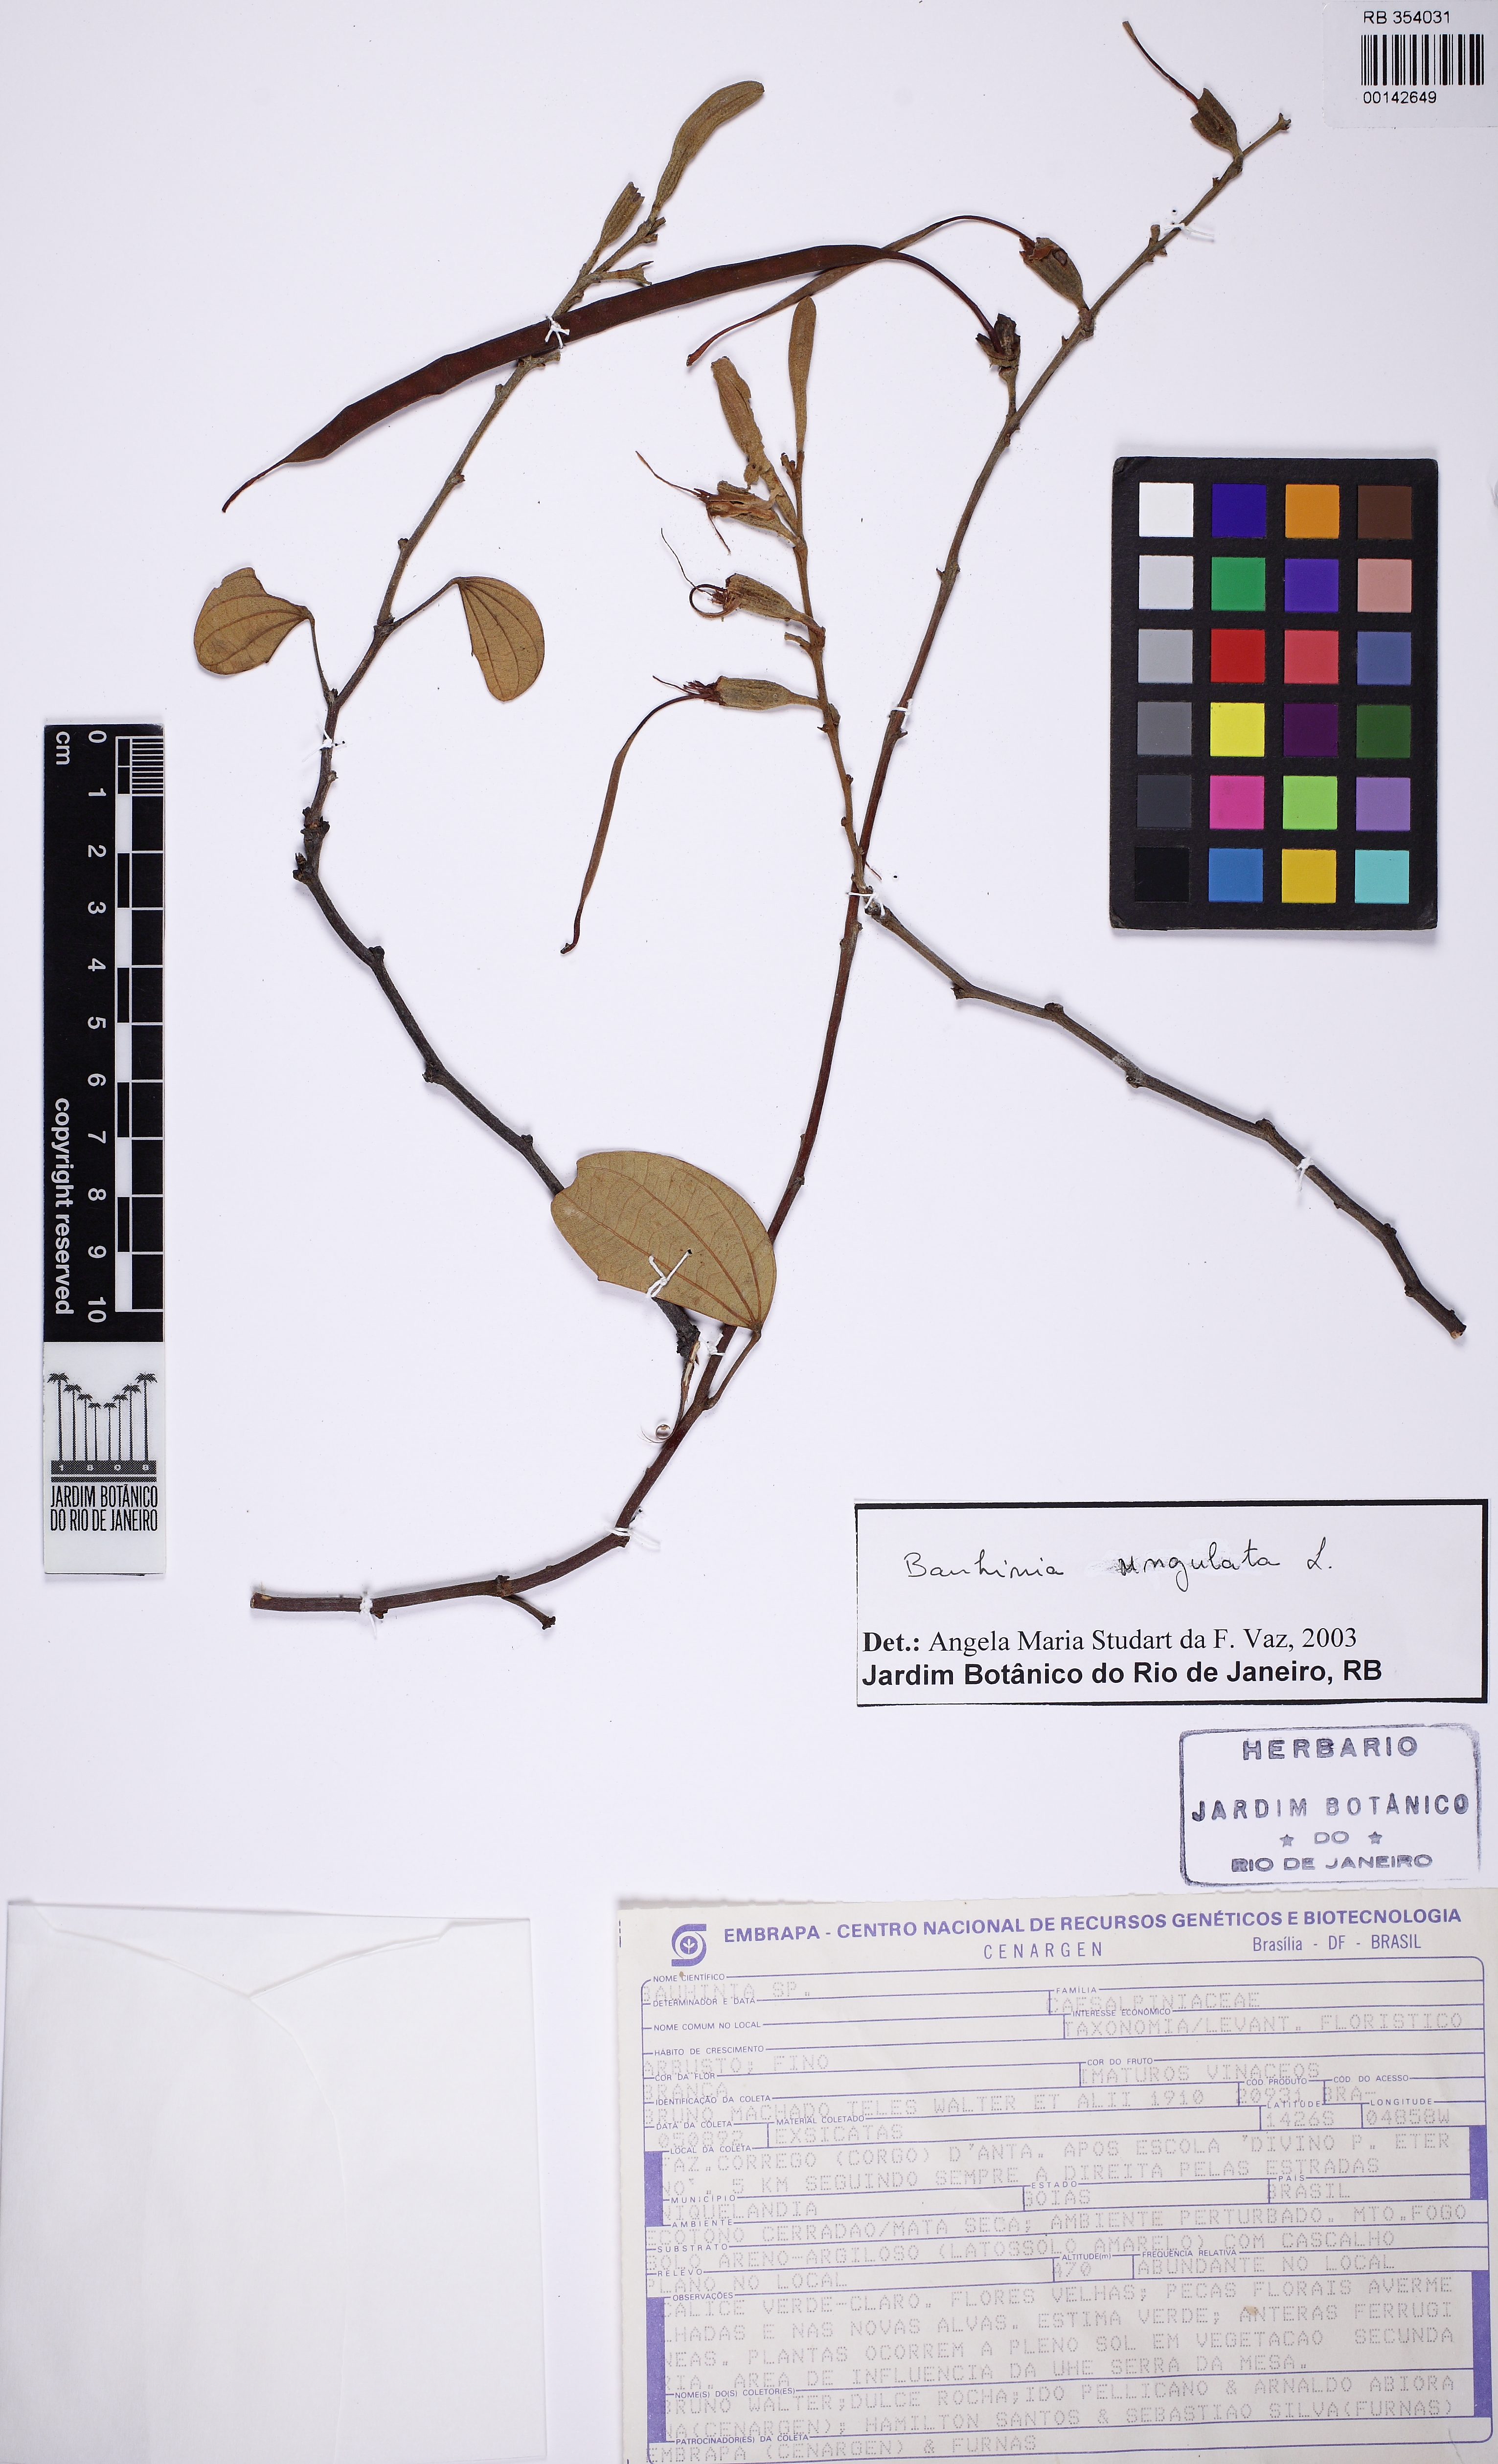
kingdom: Plantae
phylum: Tracheophyta
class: Magnoliopsida
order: Fabales
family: Fabaceae
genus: Bauhinia
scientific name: Bauhinia ungulata
